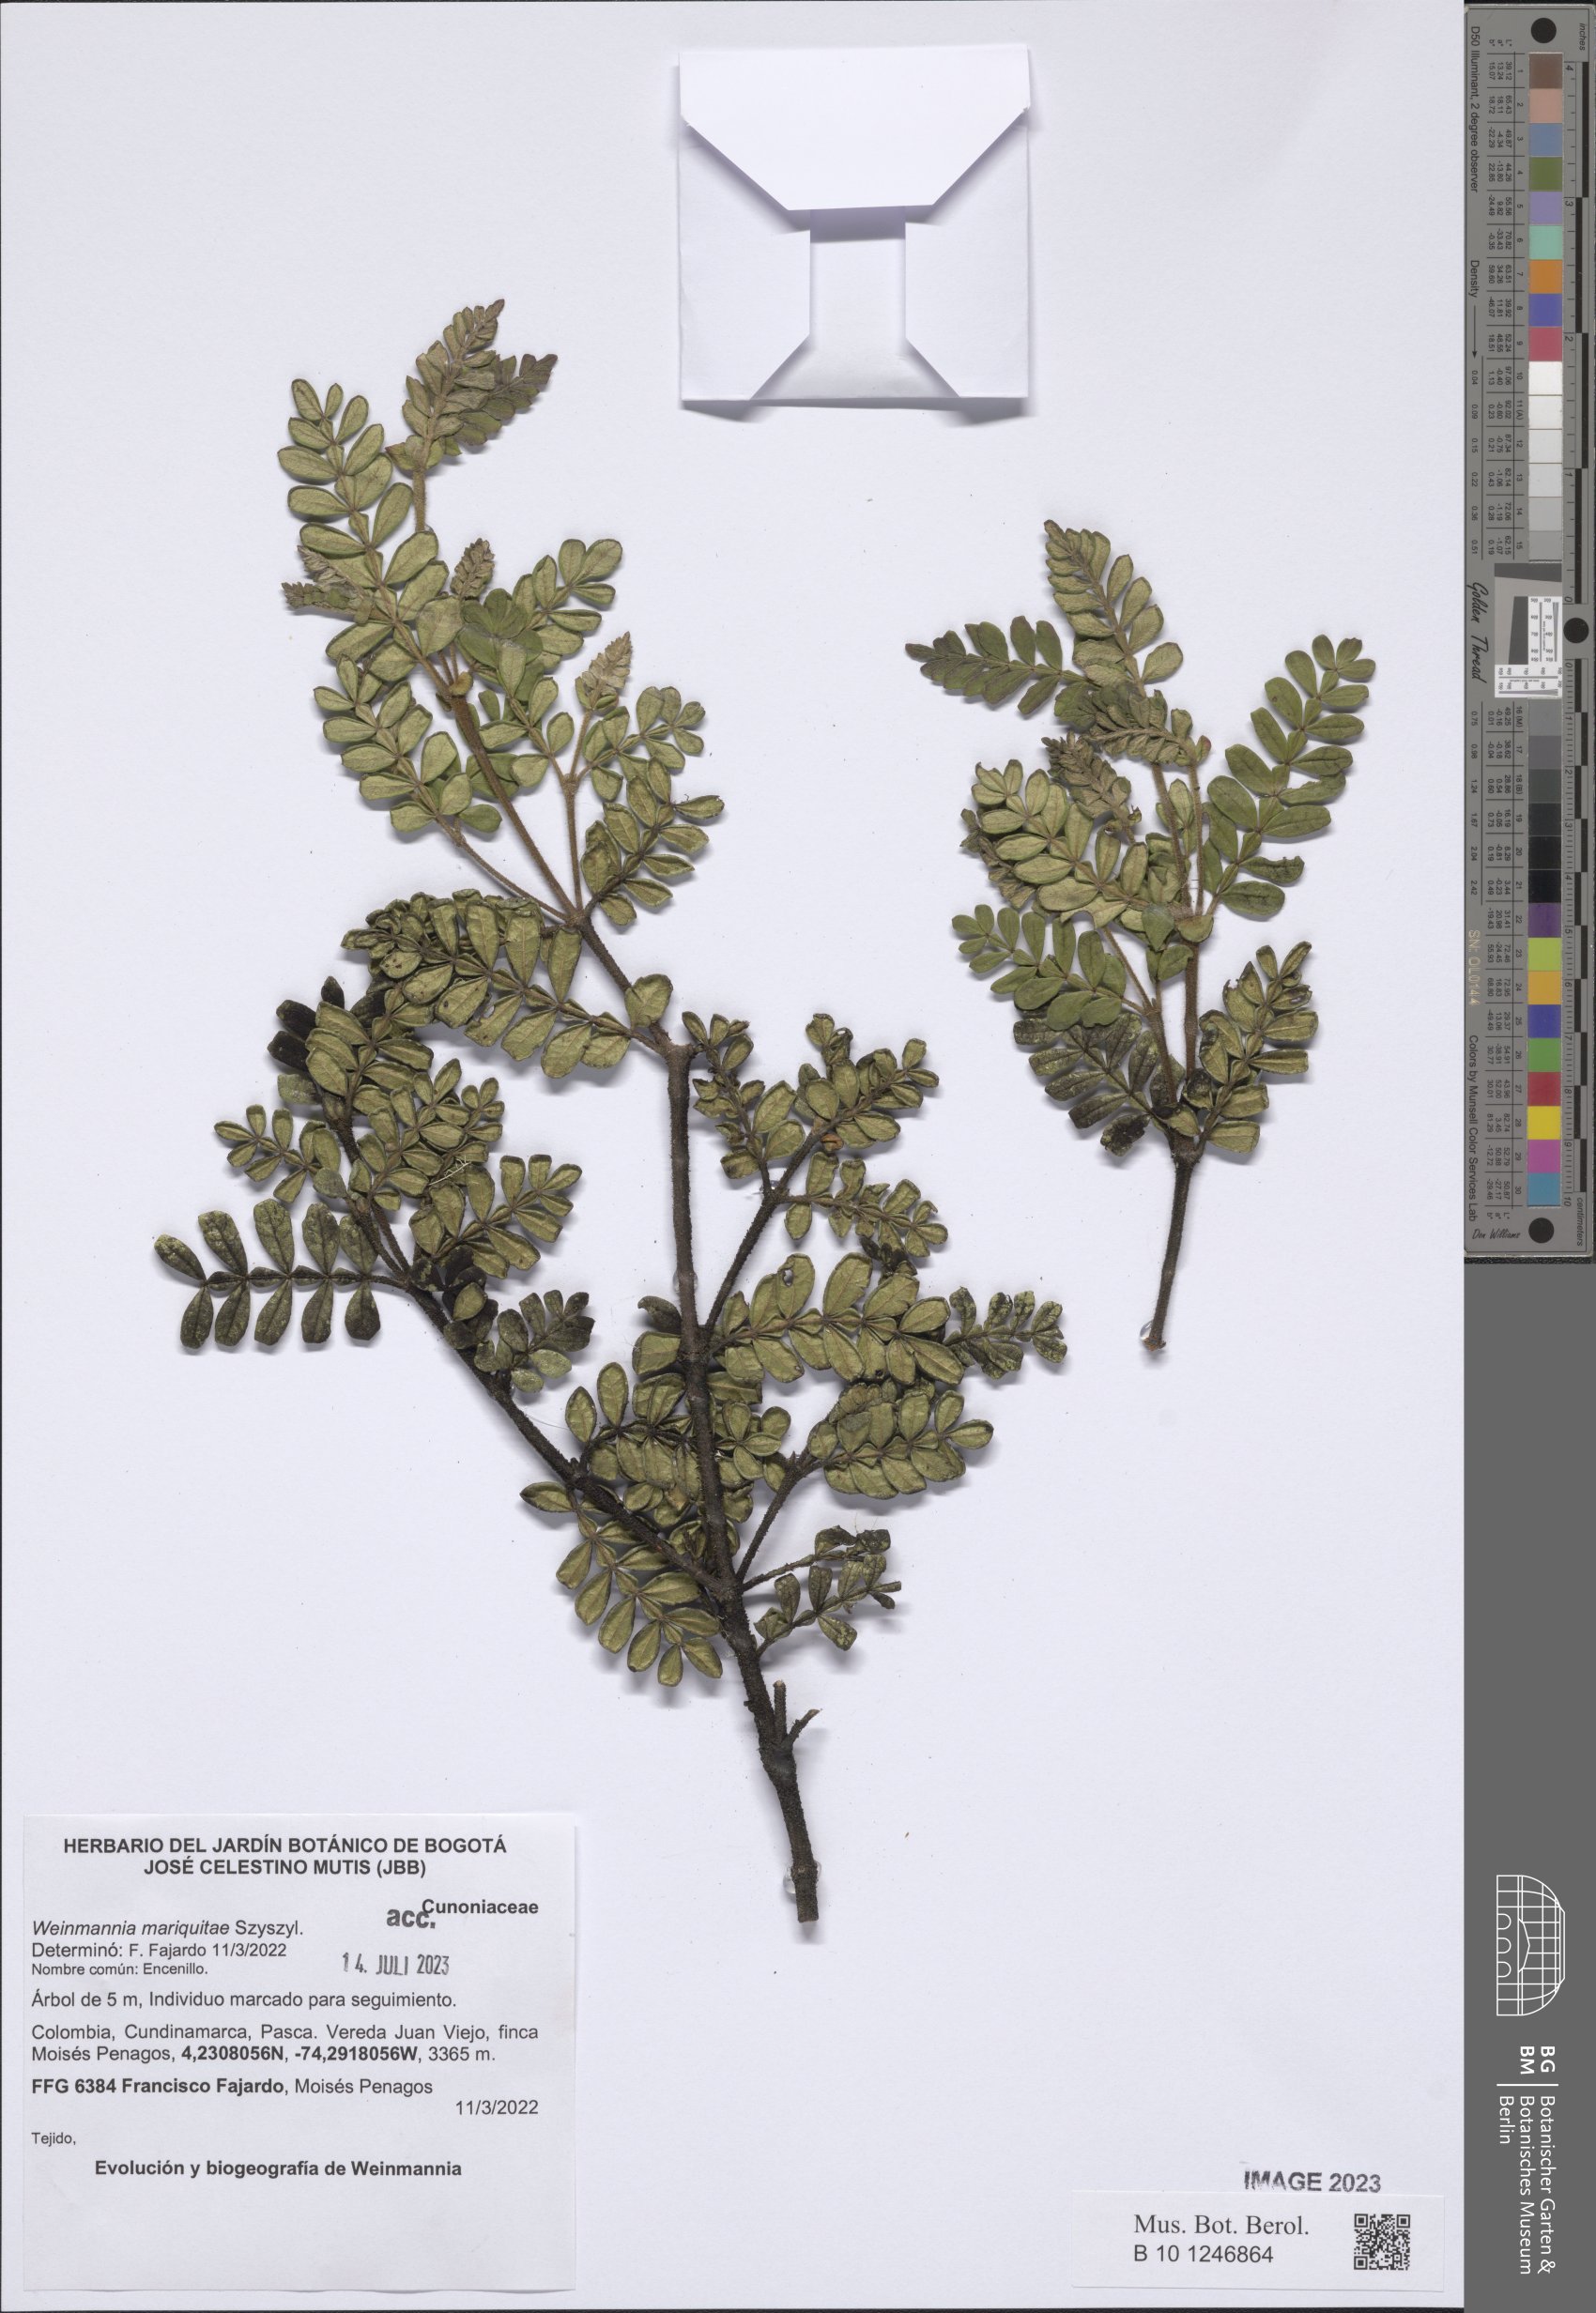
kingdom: Plantae
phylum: Tracheophyta
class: Magnoliopsida
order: Oxalidales
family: Cunoniaceae
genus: Weinmannia
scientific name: Weinmannia mariquitae
